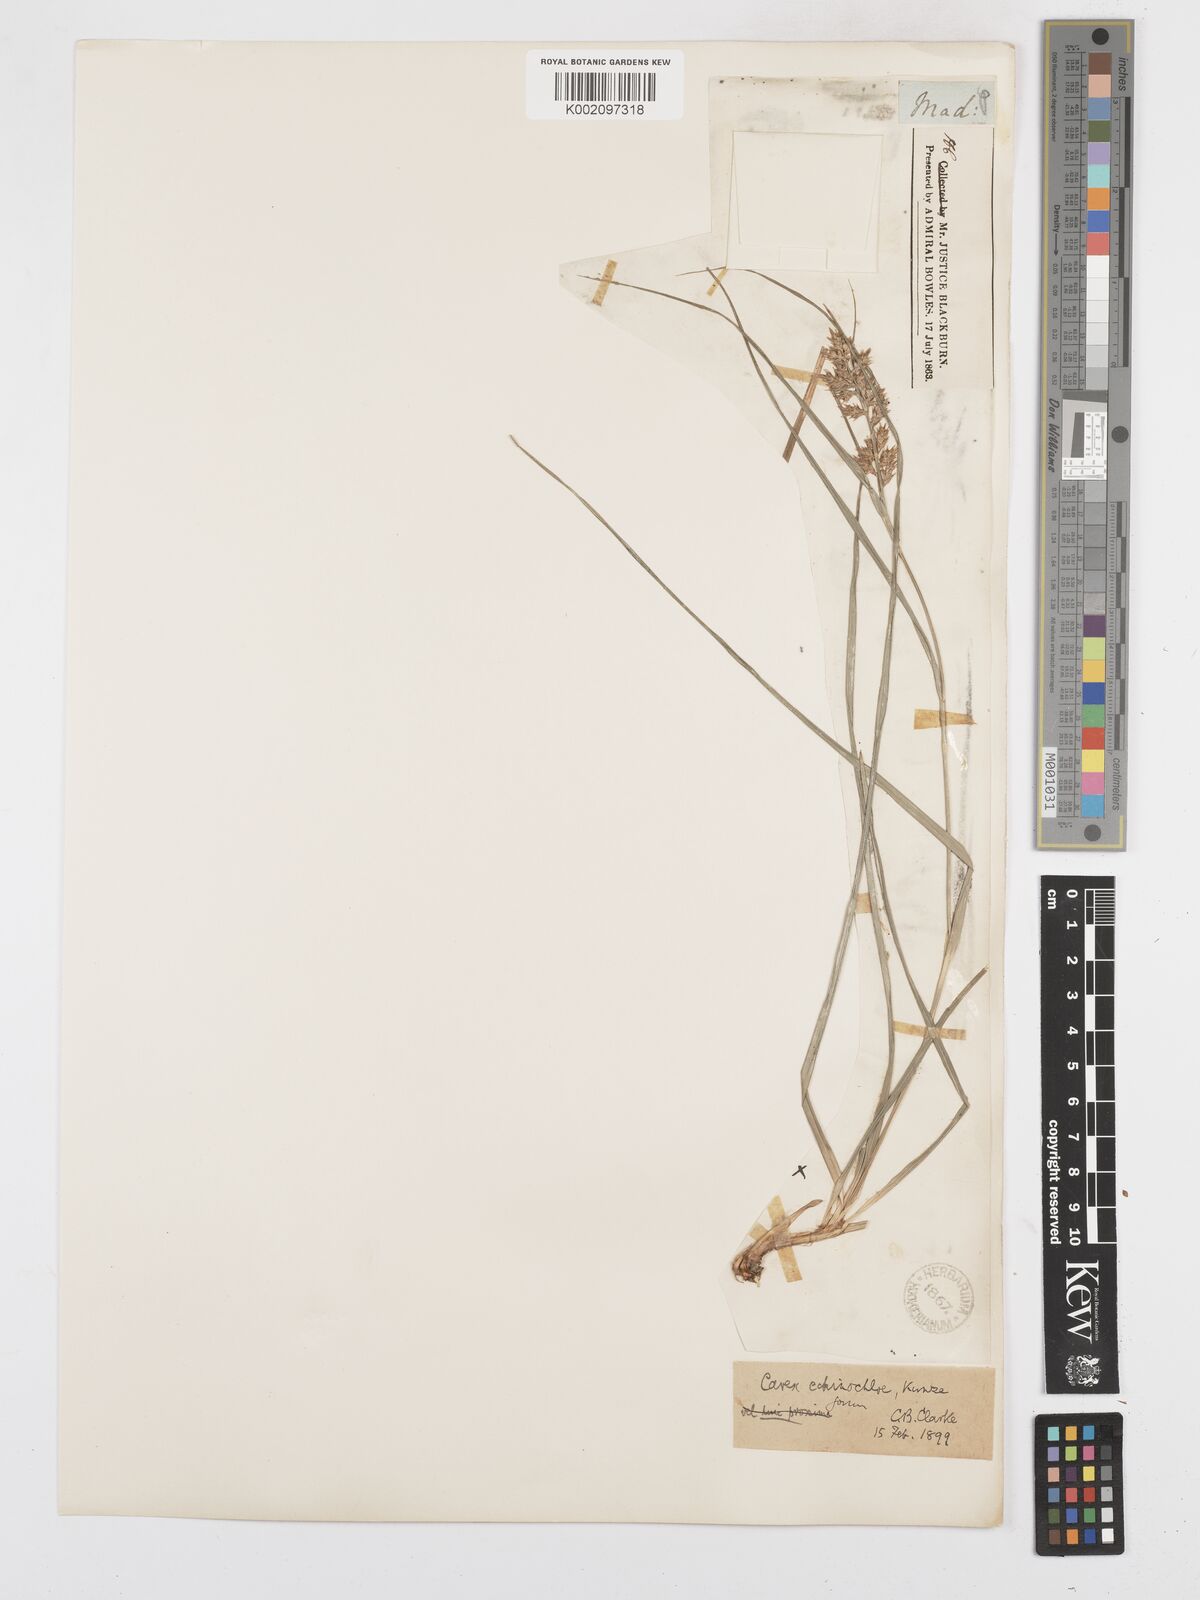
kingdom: Plantae
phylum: Tracheophyta
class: Liliopsida
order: Poales
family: Cyperaceae
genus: Carex
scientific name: Carex echinochloe
